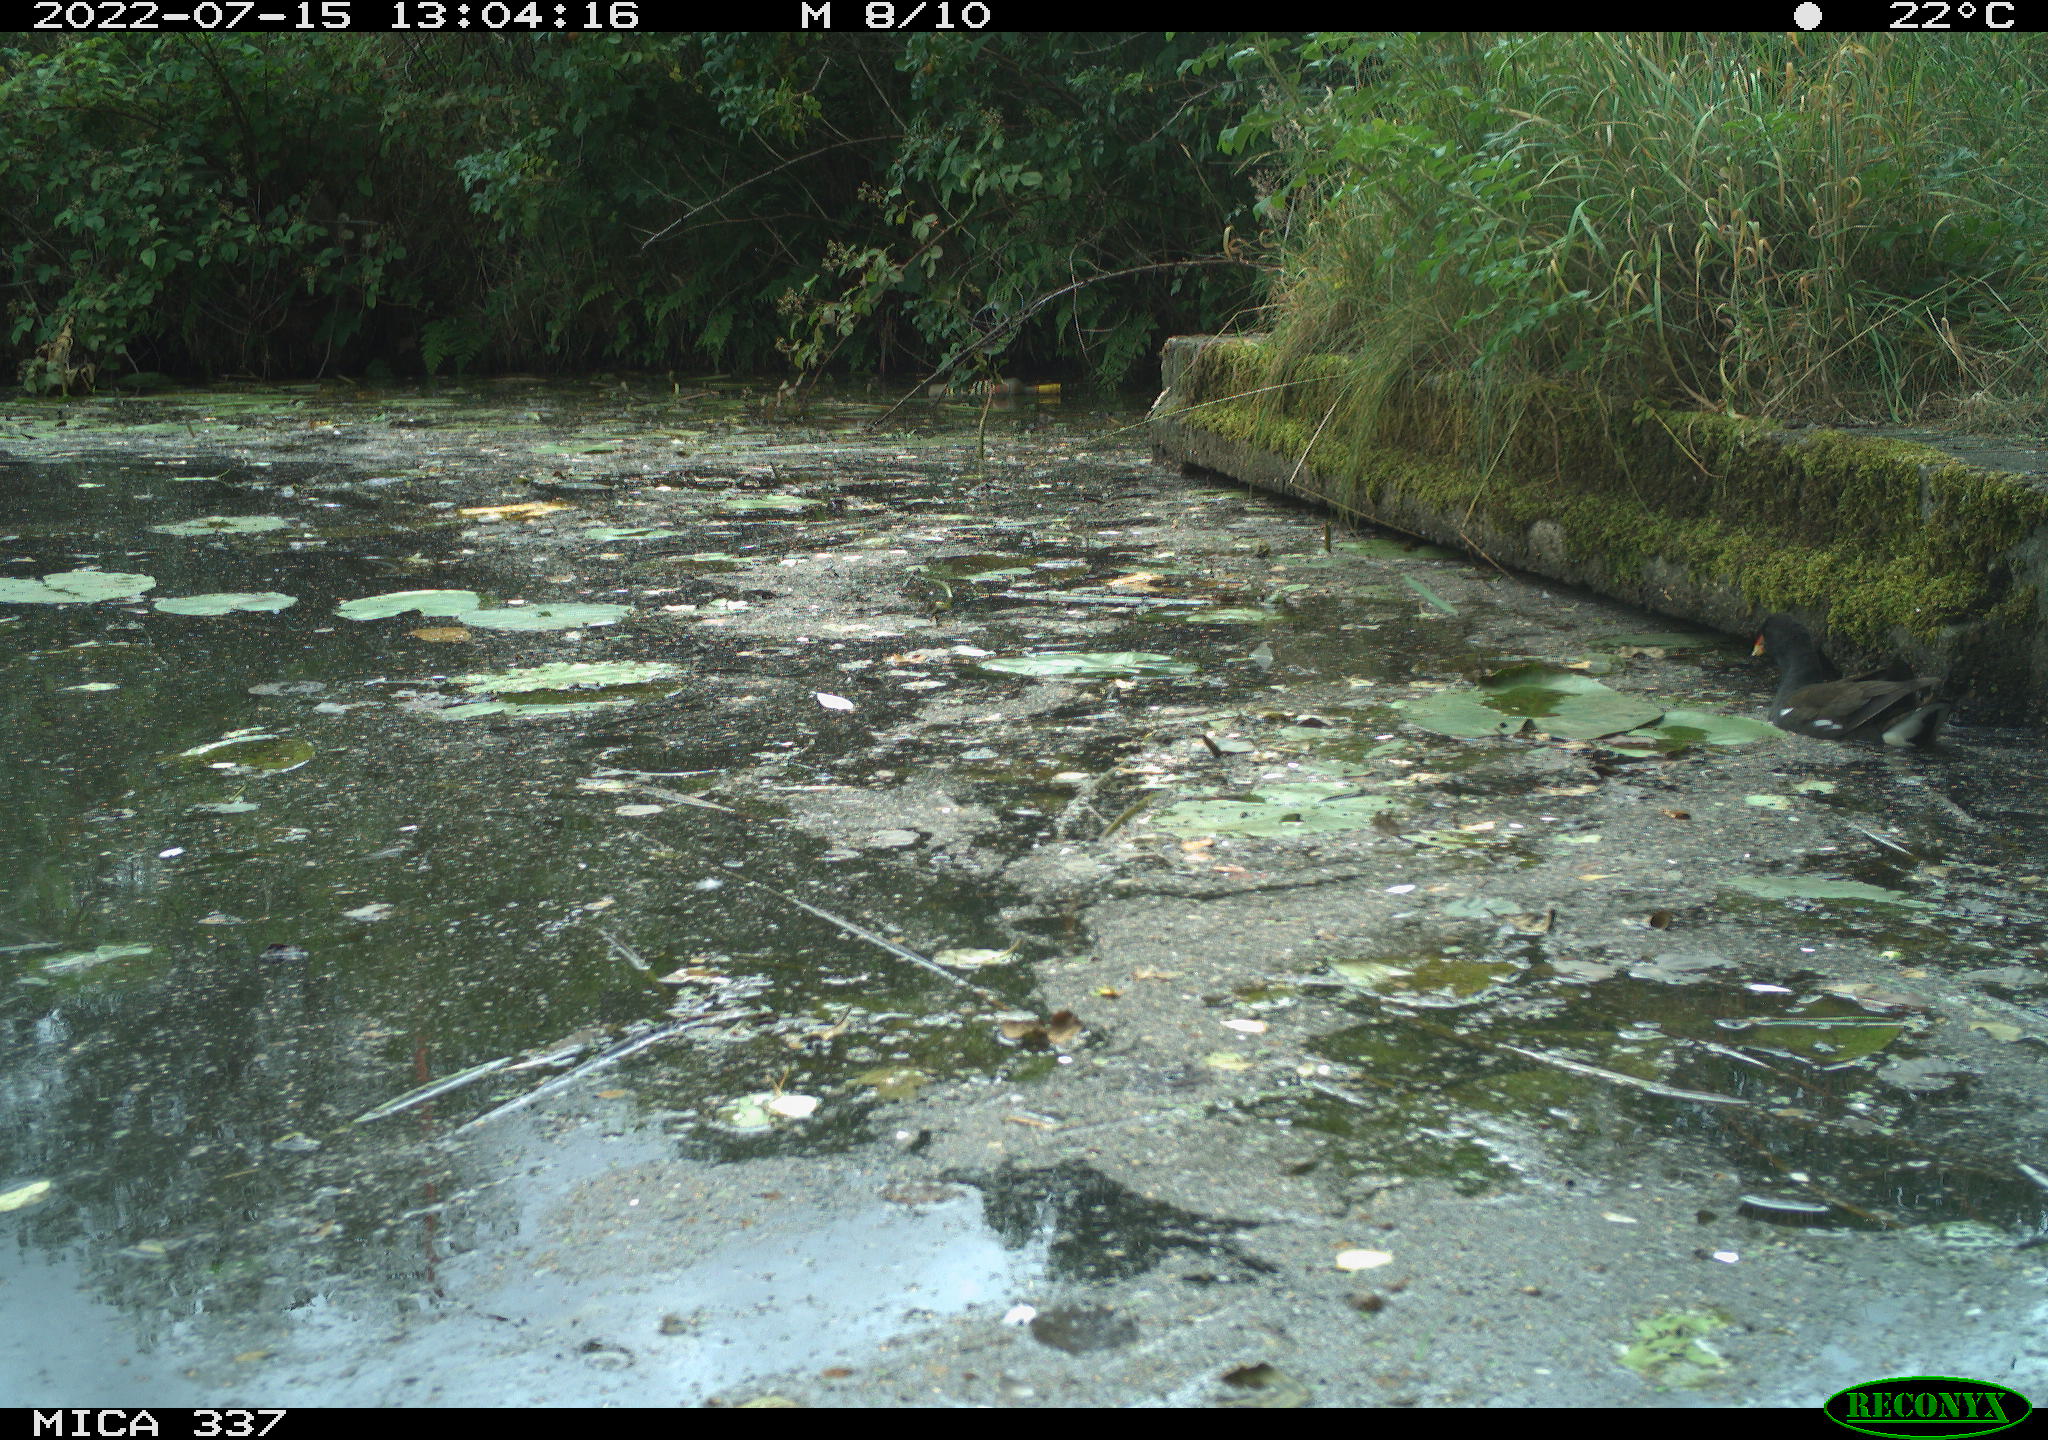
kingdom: Animalia
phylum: Chordata
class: Aves
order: Gruiformes
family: Rallidae
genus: Gallinula
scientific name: Gallinula chloropus
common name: Common moorhen
